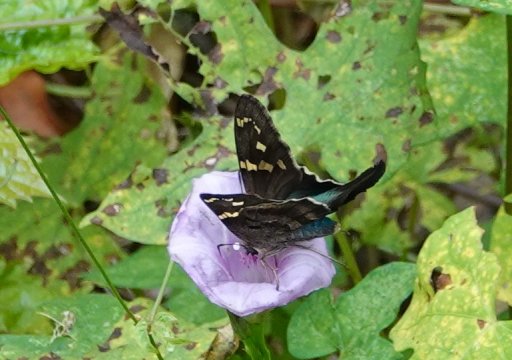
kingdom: Animalia
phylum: Arthropoda
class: Insecta
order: Lepidoptera
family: Hesperiidae
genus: Urbanus
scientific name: Urbanus proteus
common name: Long-tailed Skipper
